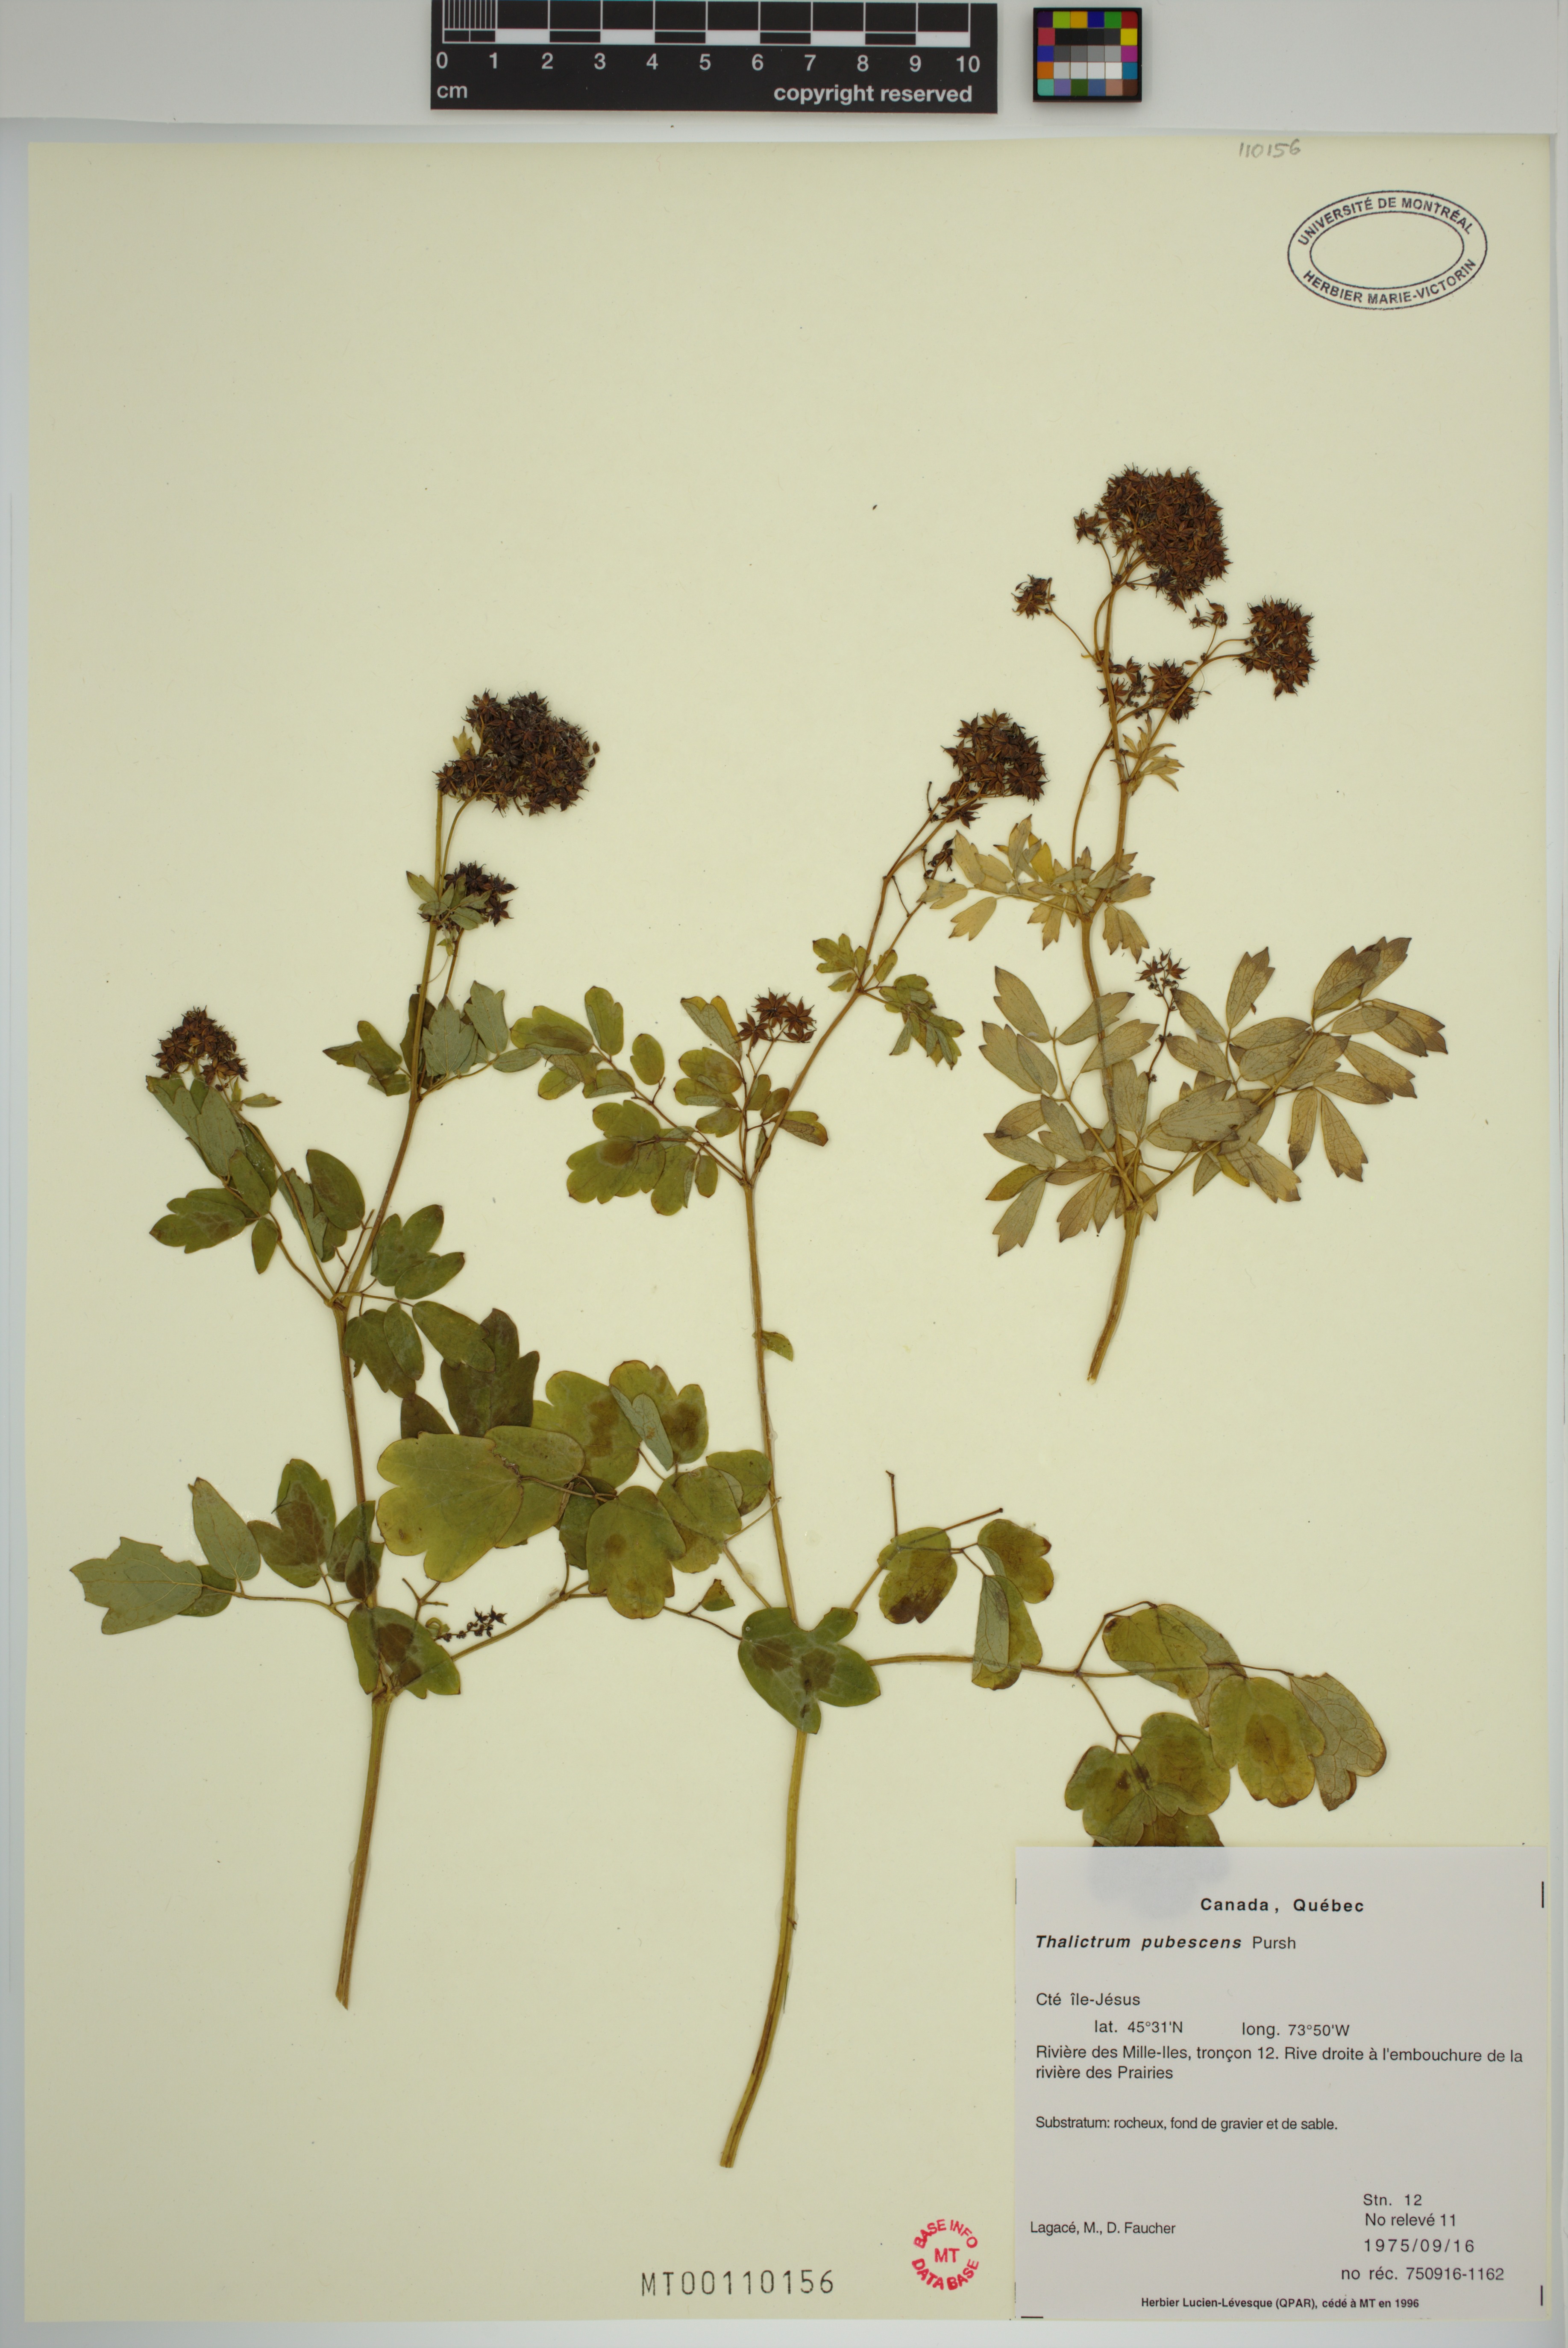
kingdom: Plantae
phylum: Tracheophyta
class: Magnoliopsida
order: Ranunculales
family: Ranunculaceae
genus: Thalictrum
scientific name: Thalictrum pubescens
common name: King-of-the-meadow
